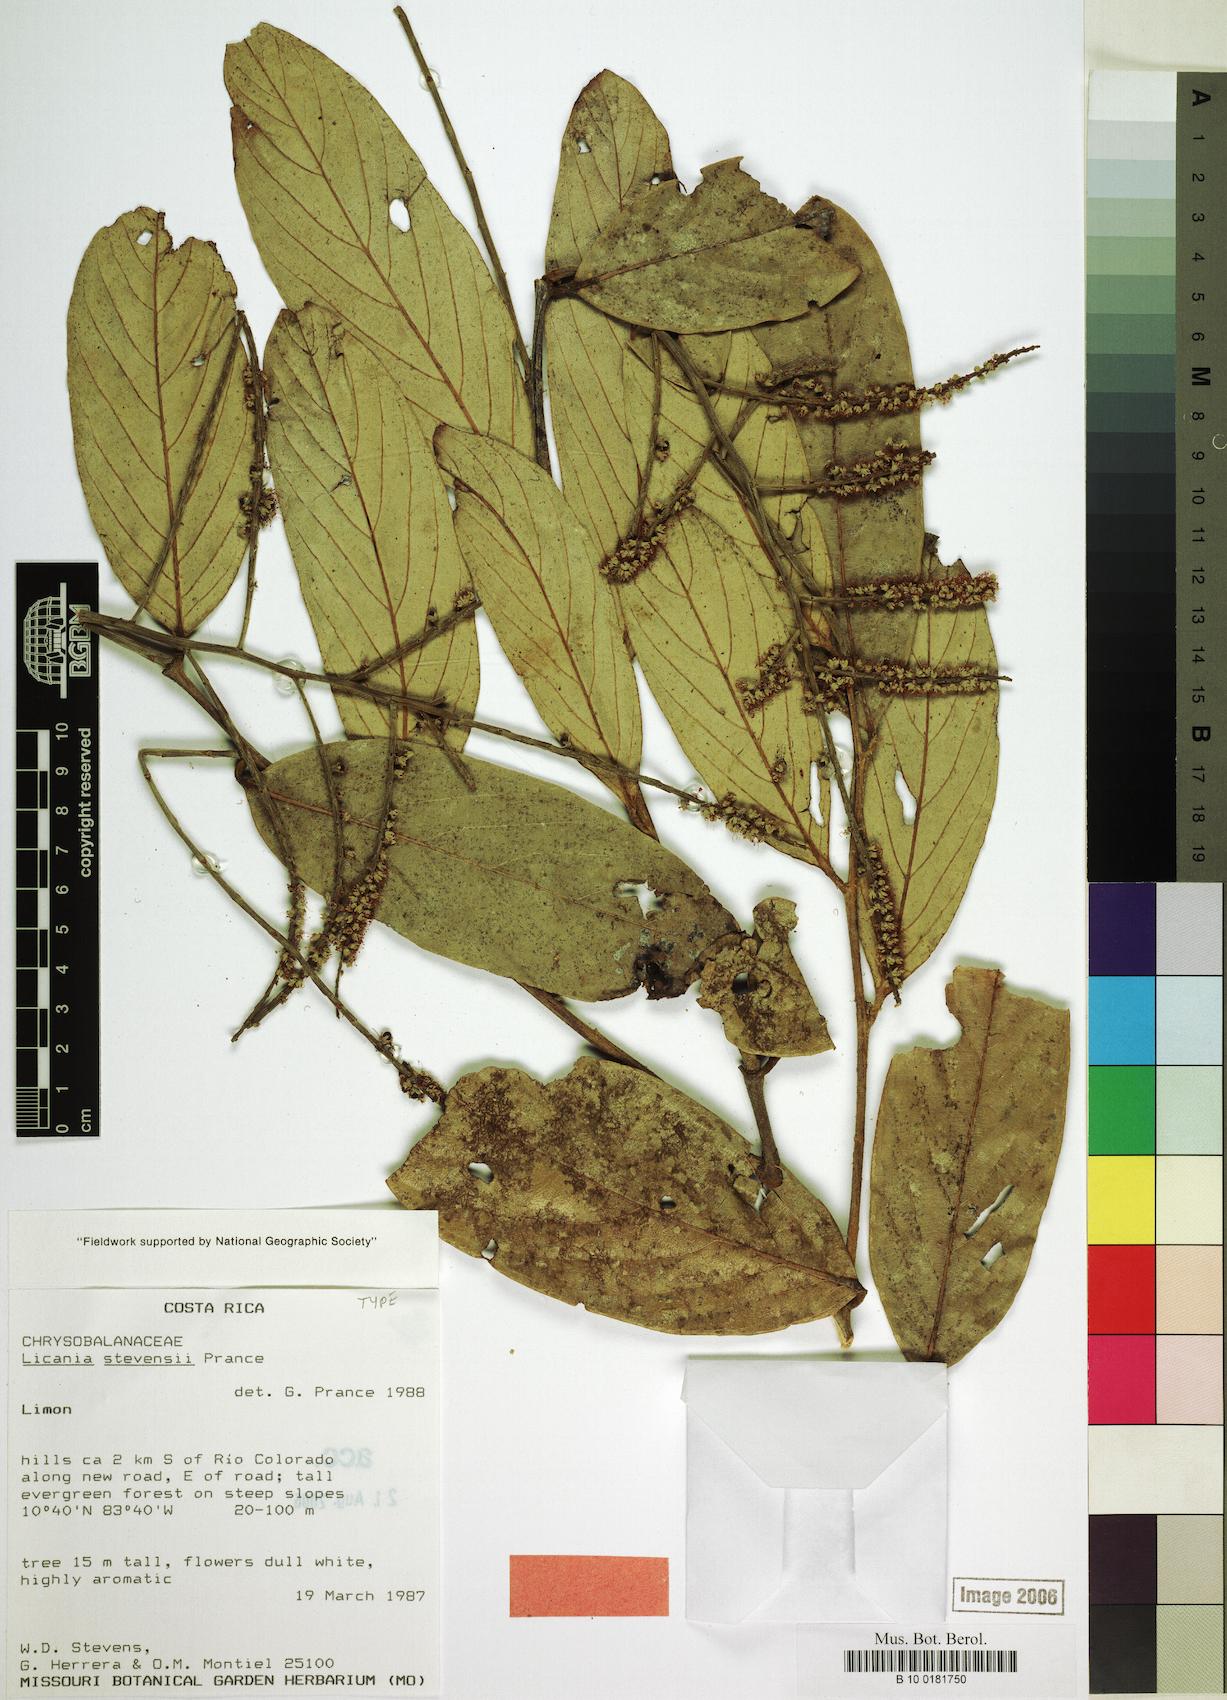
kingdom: Plantae
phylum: Tracheophyta
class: Magnoliopsida
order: Malpighiales
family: Chrysobalanaceae
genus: Leptobalanus
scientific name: Leptobalanus stevensii
